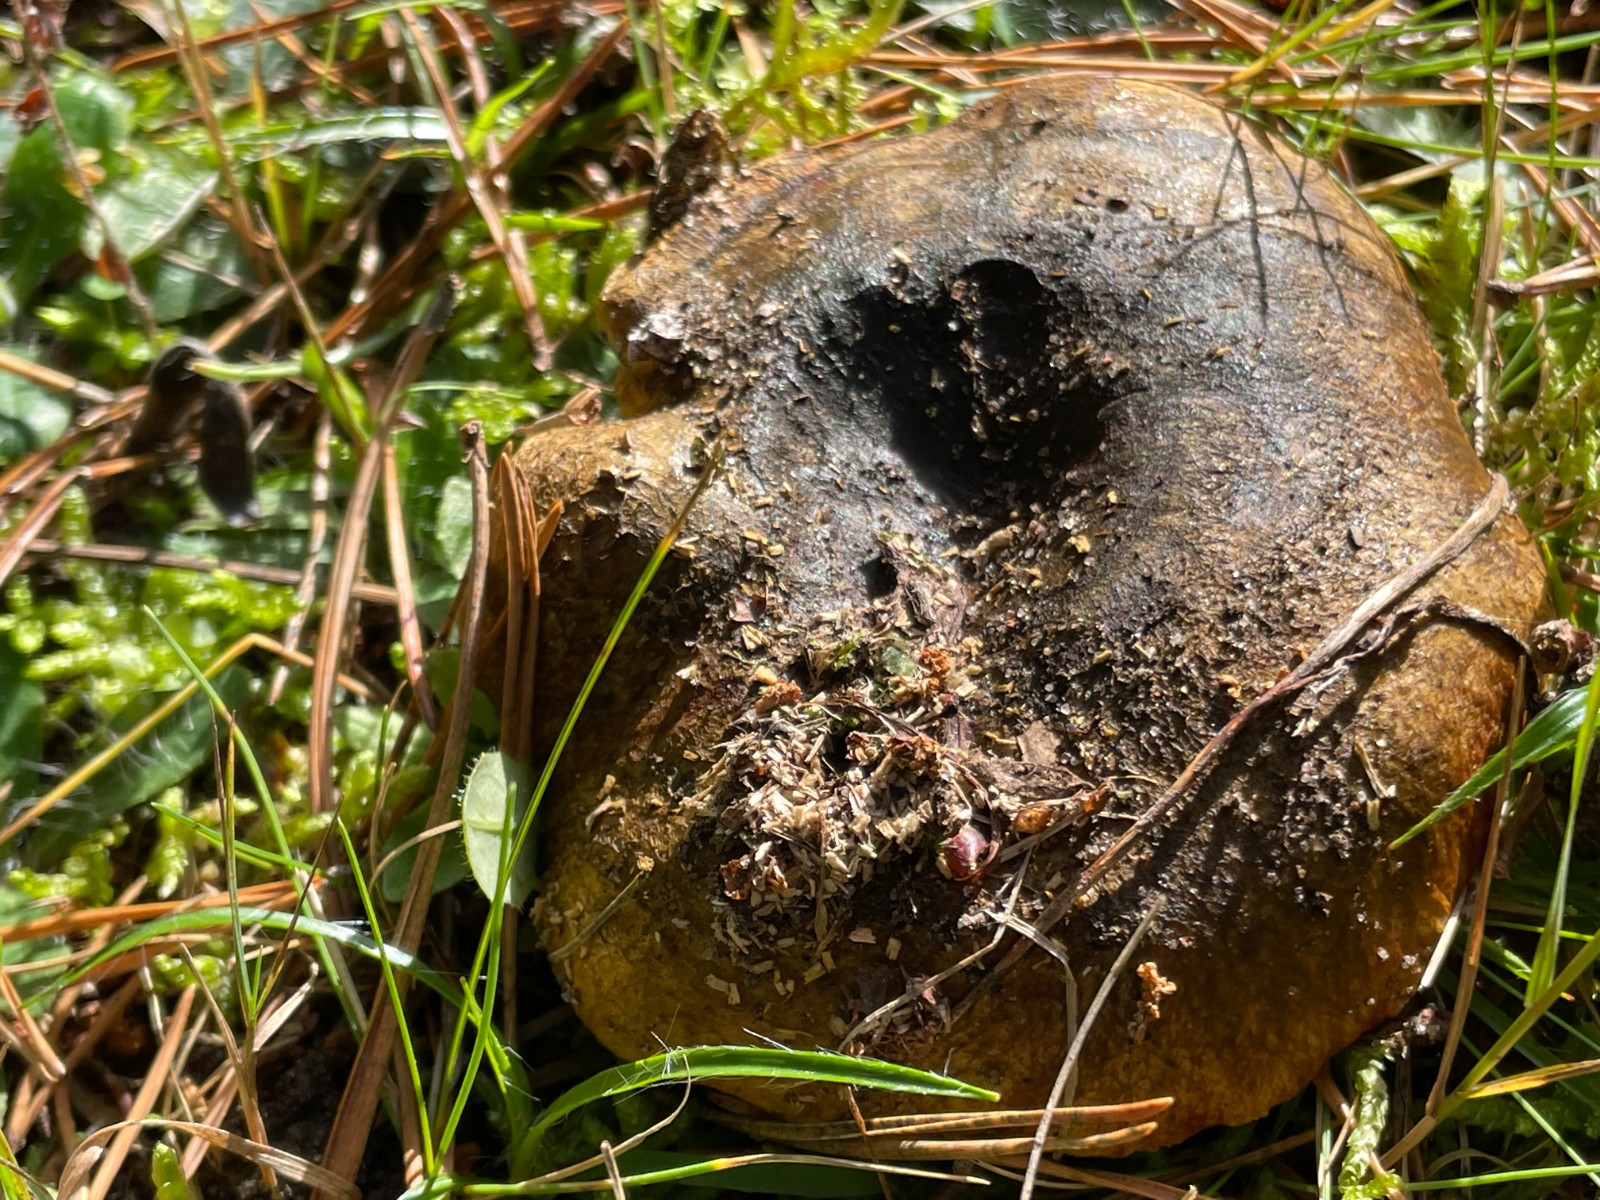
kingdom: Fungi
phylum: Basidiomycota
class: Agaricomycetes
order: Russulales
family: Russulaceae
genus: Lactarius
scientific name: Lactarius necator
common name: manddraber-mælkehat
